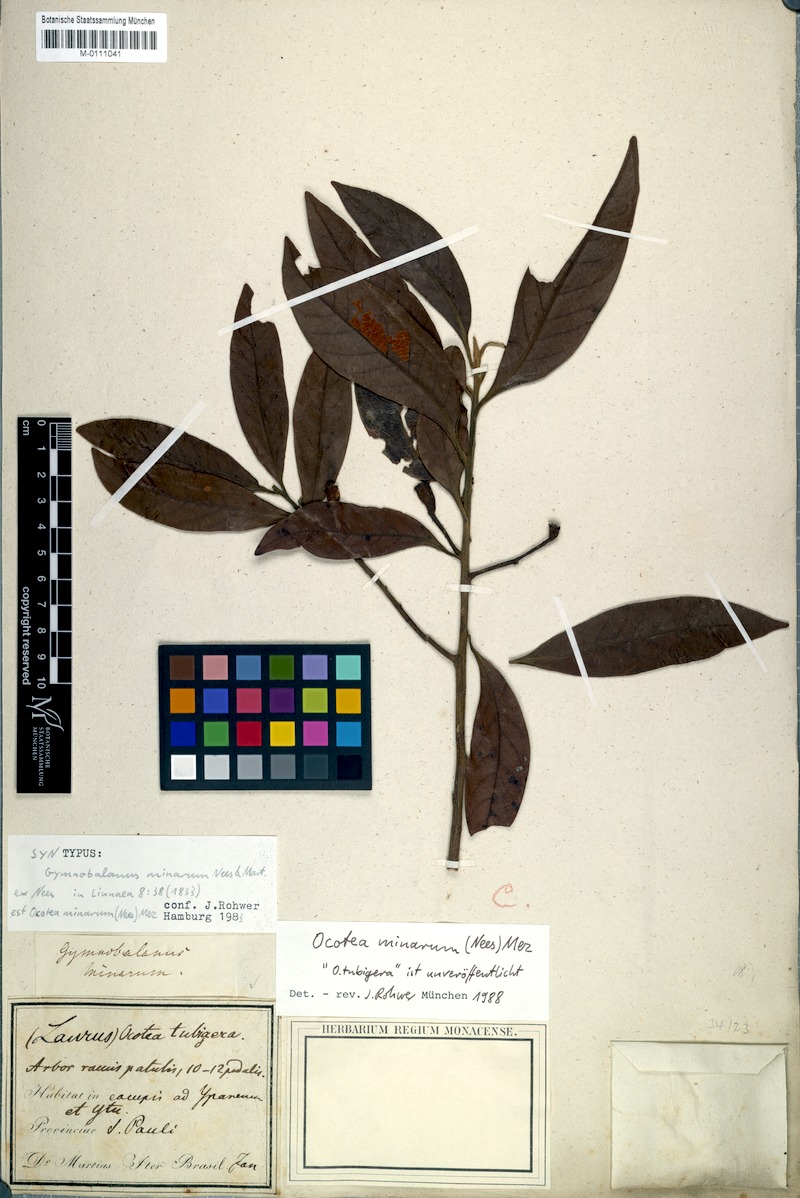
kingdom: Plantae
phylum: Tracheophyta
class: Magnoliopsida
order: Laurales
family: Lauraceae
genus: Ocotea
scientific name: Ocotea minarum
